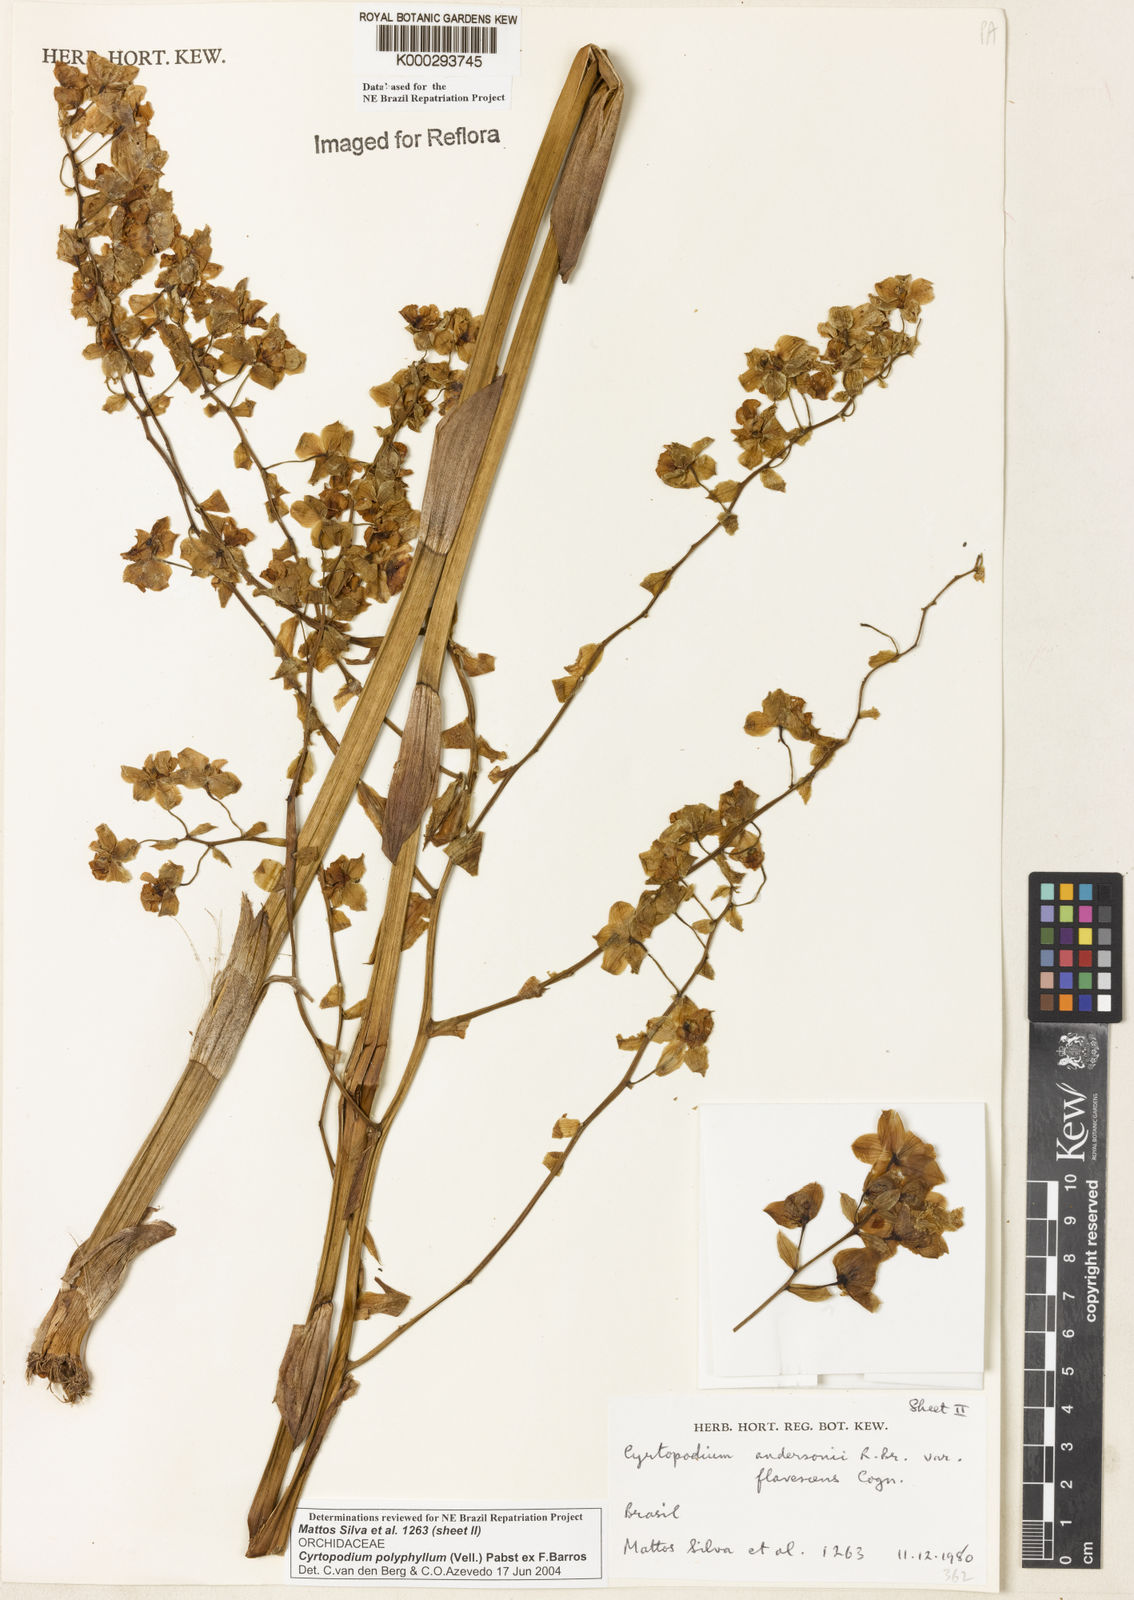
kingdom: Plantae
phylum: Tracheophyta
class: Liliopsida
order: Asparagales
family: Orchidaceae
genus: Cyrtopodium
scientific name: Cyrtopodium flavum
